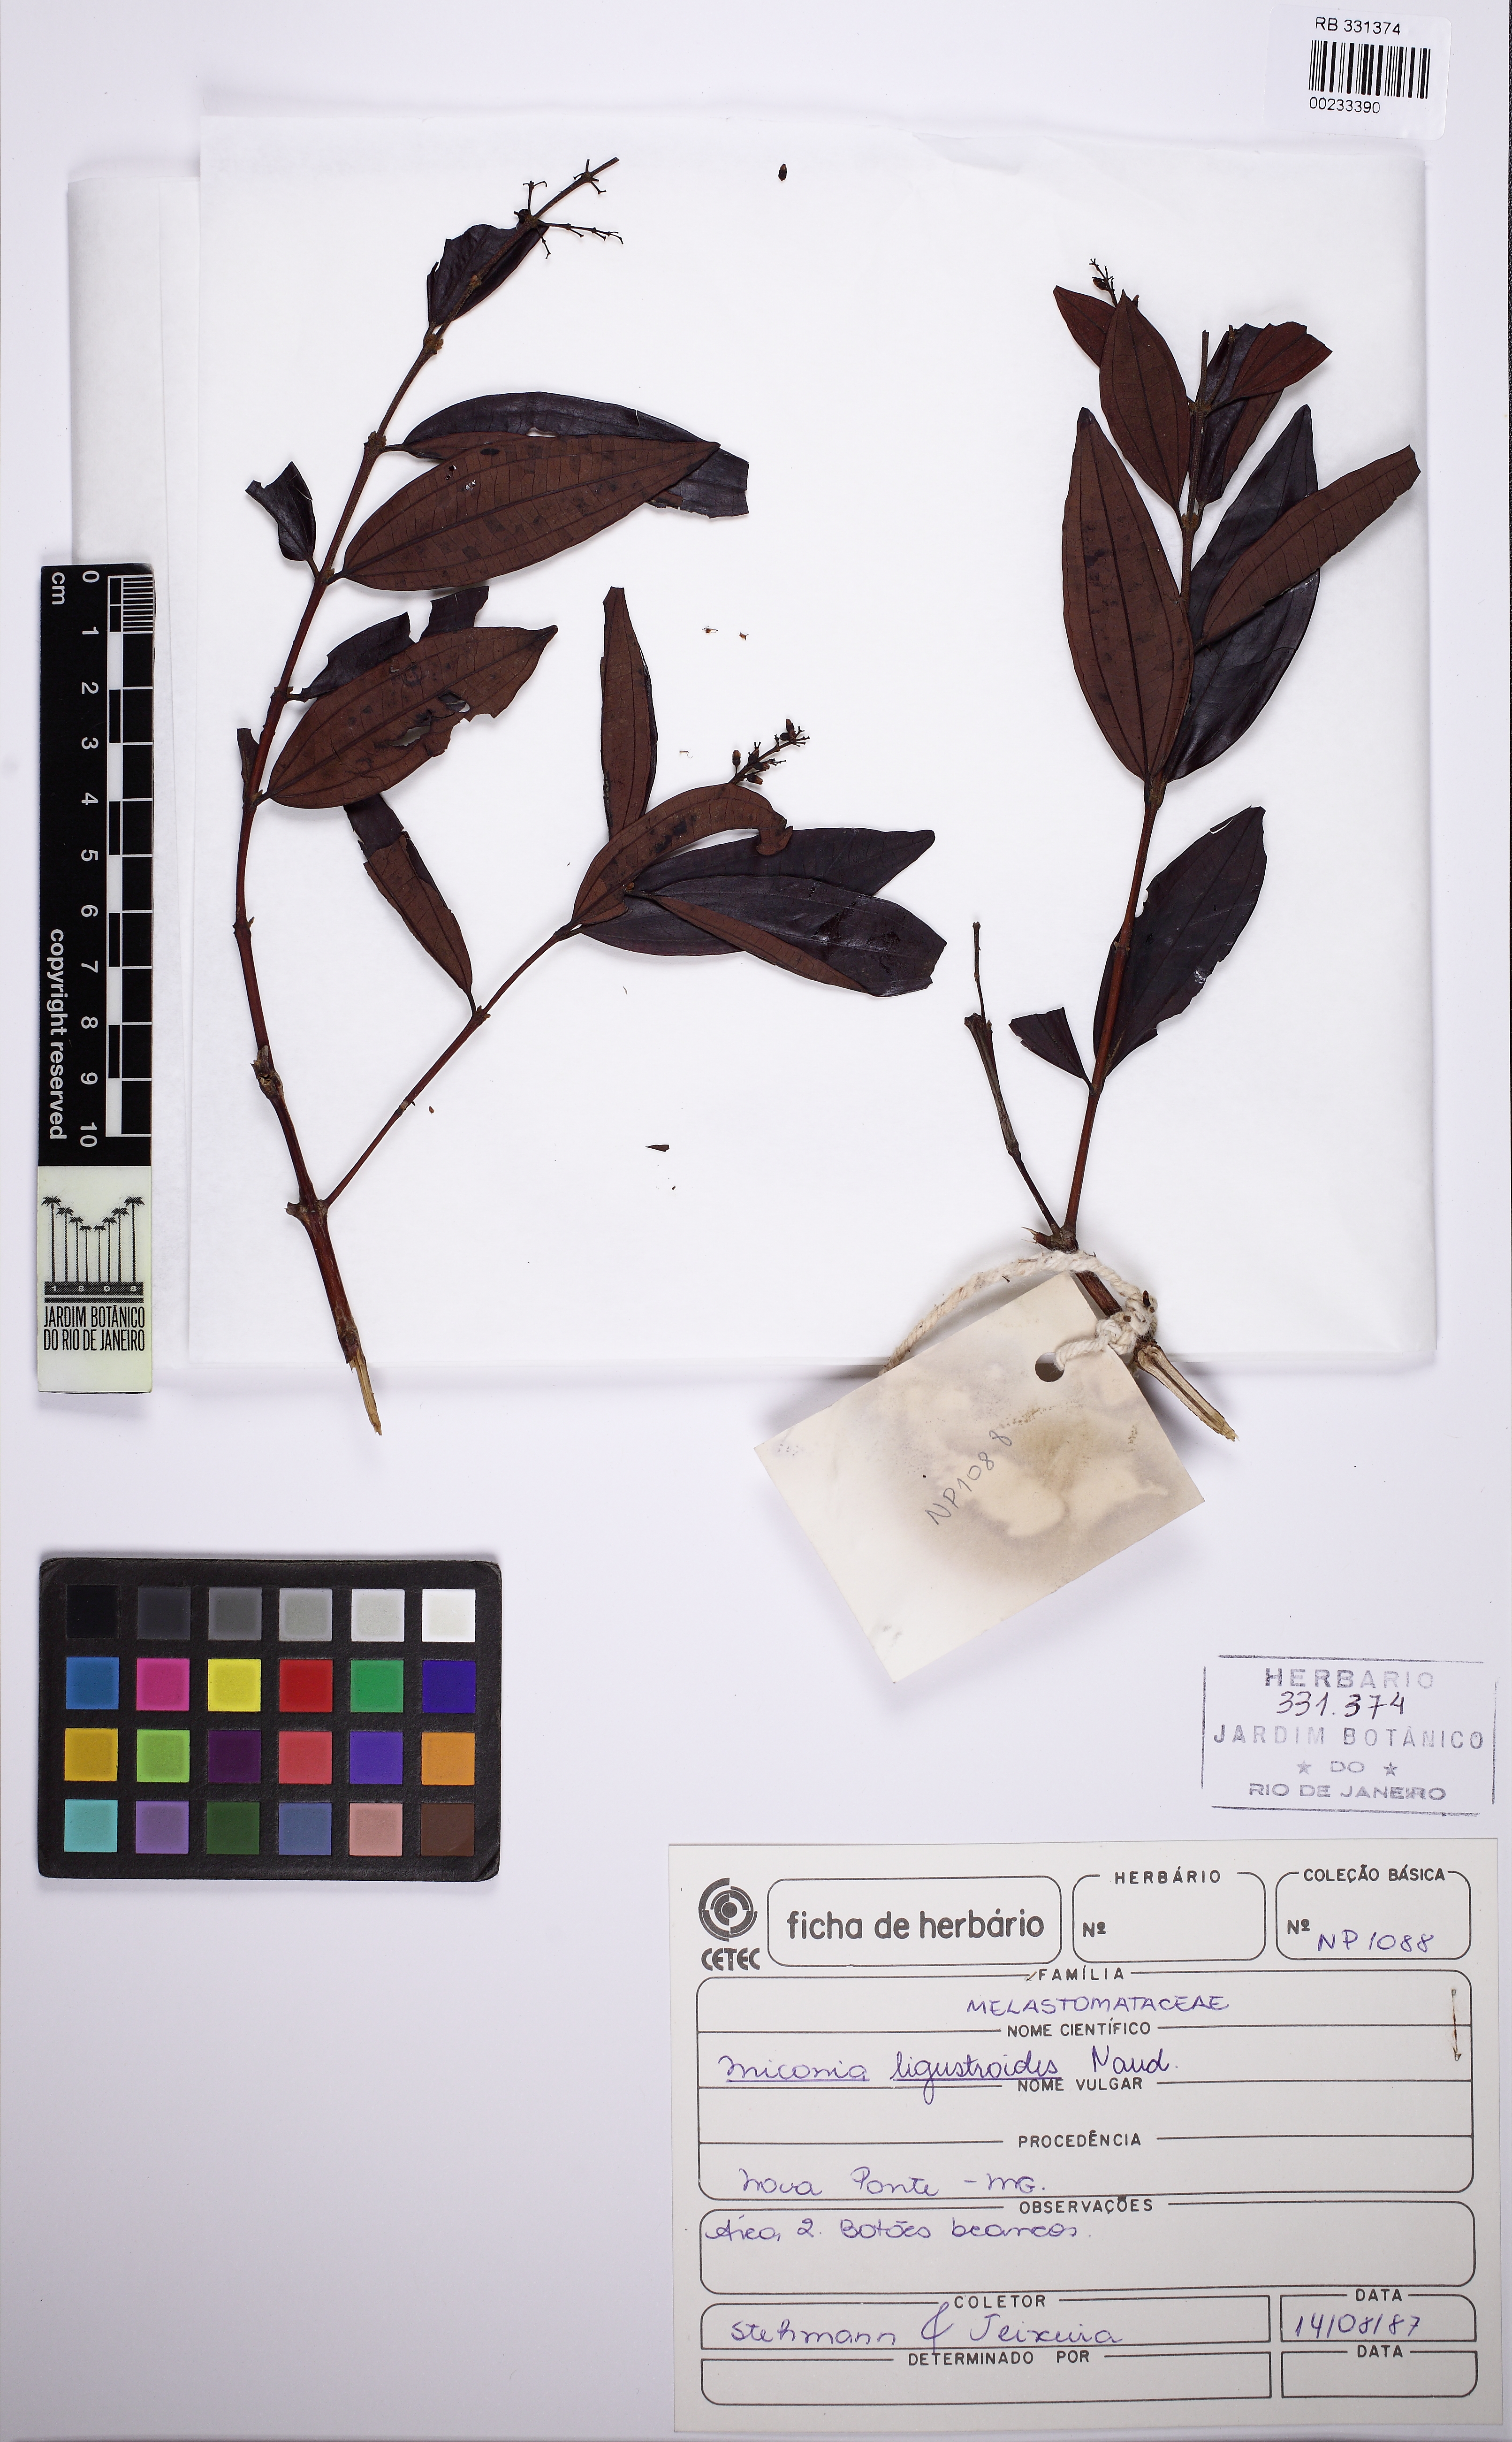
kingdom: Plantae
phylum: Tracheophyta
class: Magnoliopsida
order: Myrtales
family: Melastomataceae
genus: Miconia
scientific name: Miconia ligustroides
